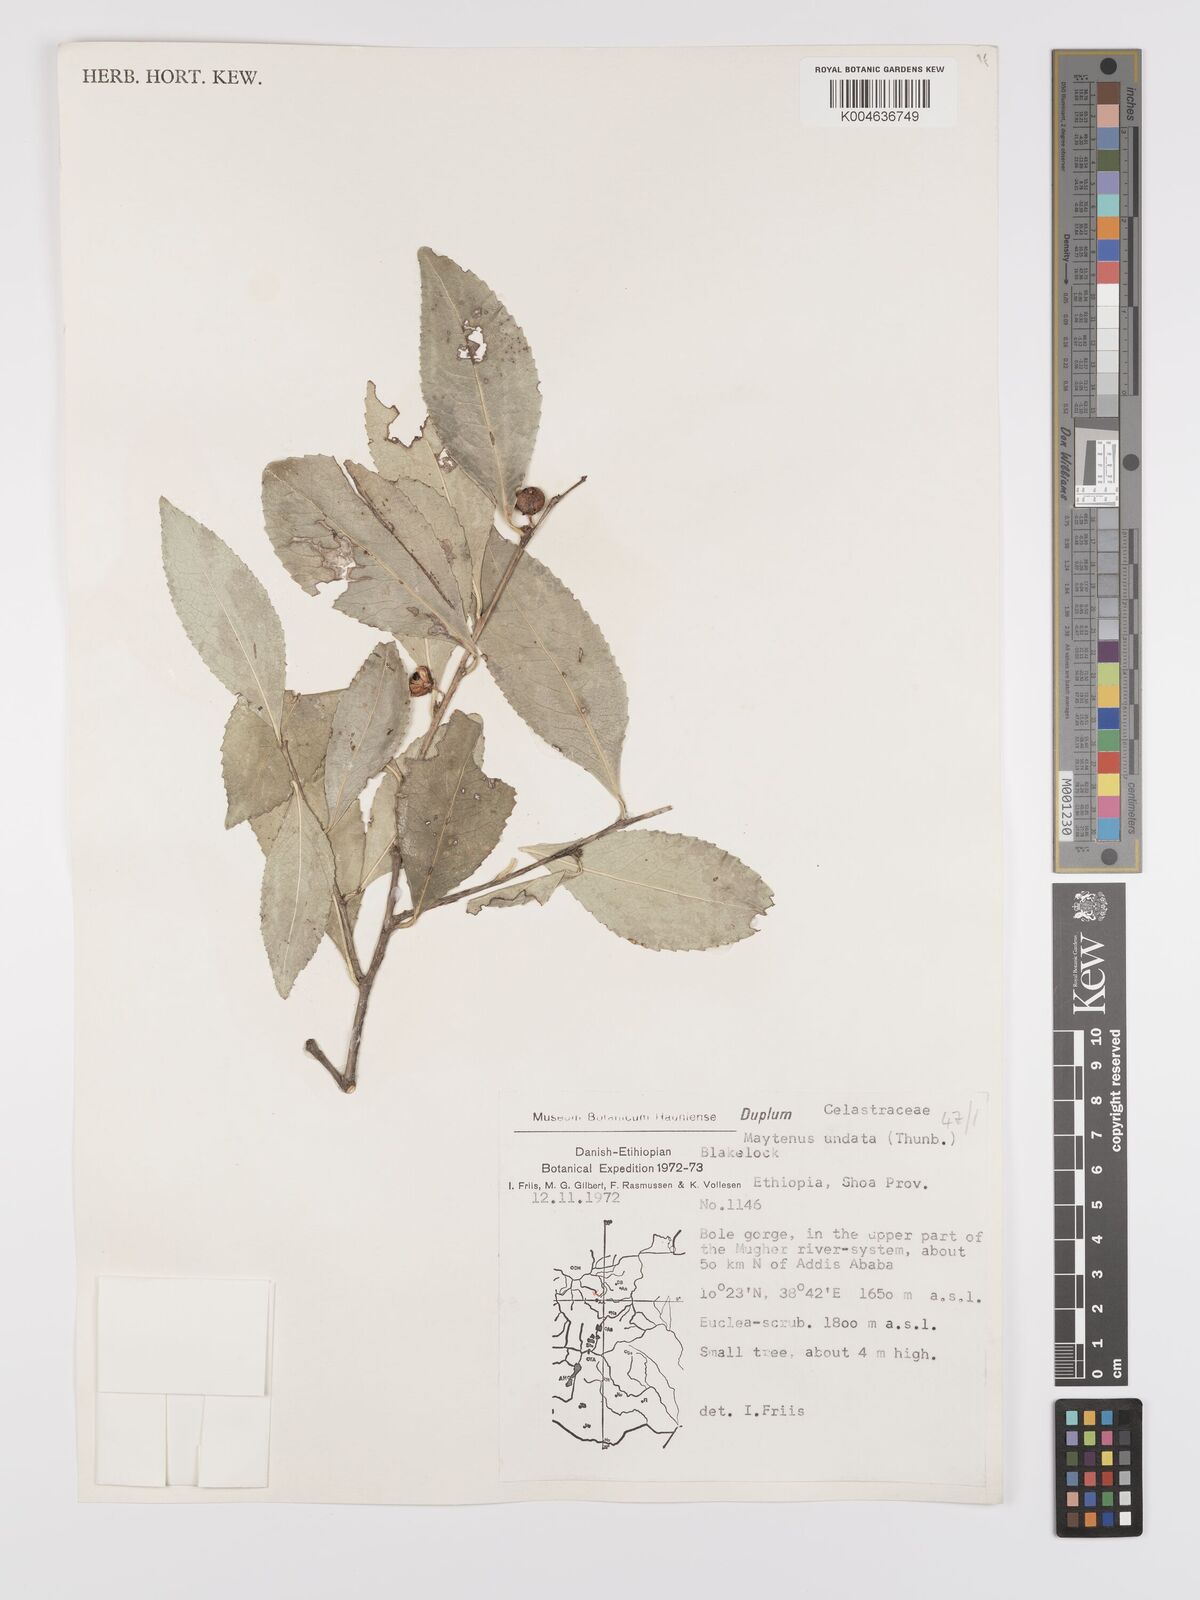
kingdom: Plantae
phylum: Tracheophyta
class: Magnoliopsida
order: Celastrales
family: Celastraceae
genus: Gymnosporia
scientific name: Gymnosporia undata
